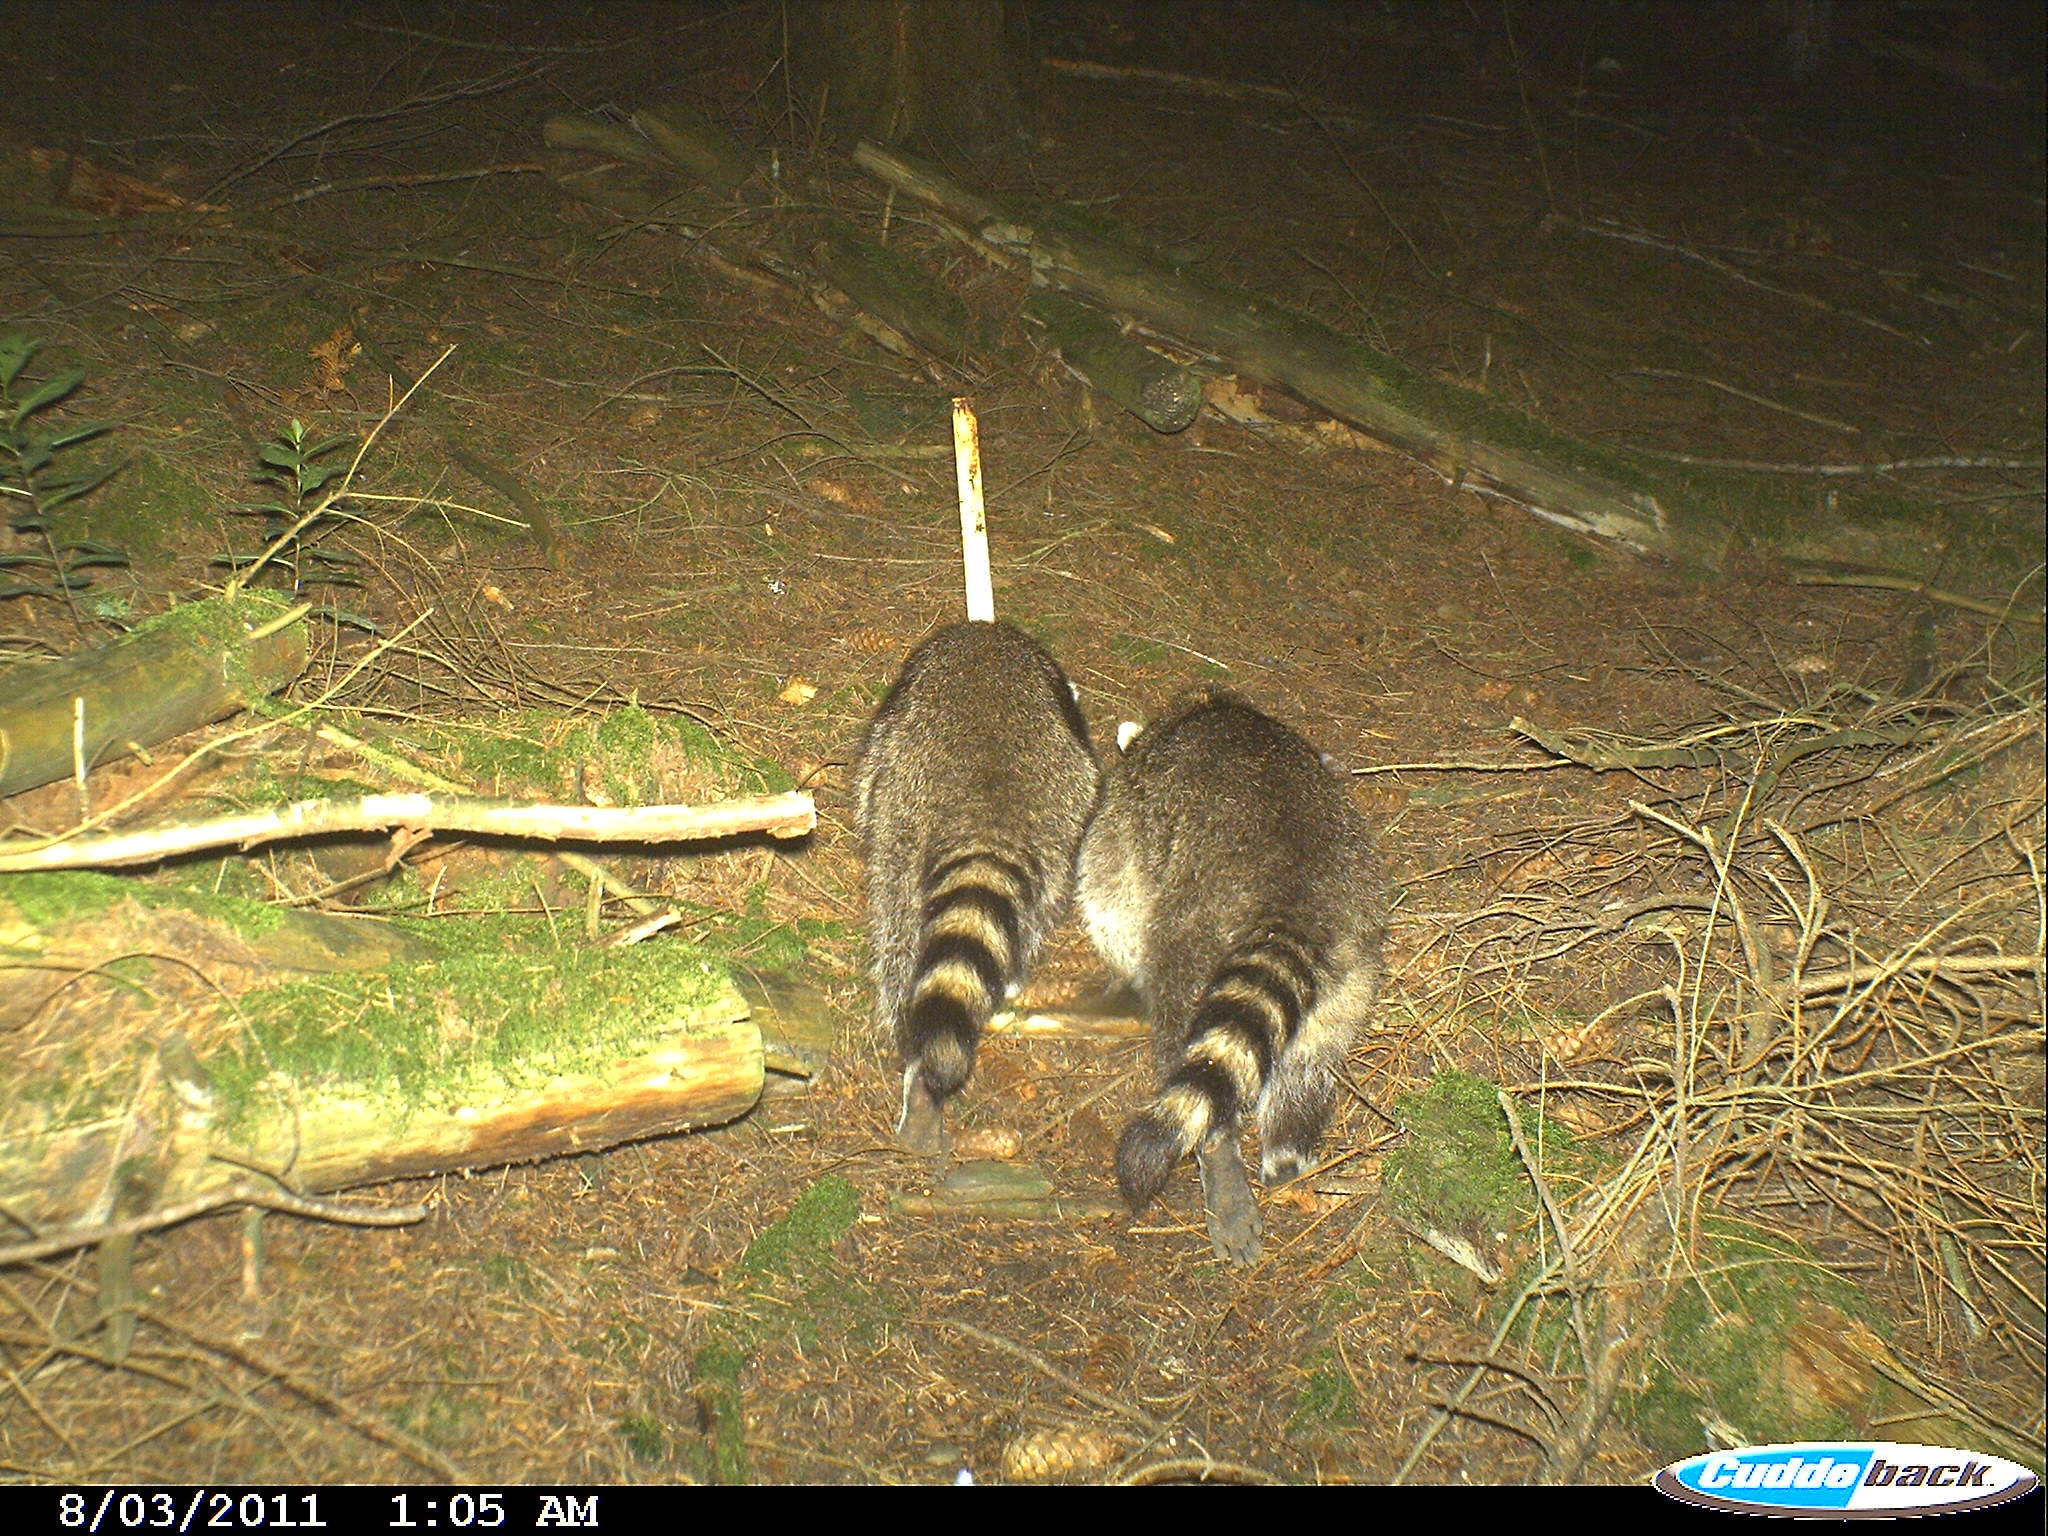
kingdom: Animalia
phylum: Chordata
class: Mammalia
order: Carnivora
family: Procyonidae
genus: Procyon
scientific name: Procyon lotor
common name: Raccoon
